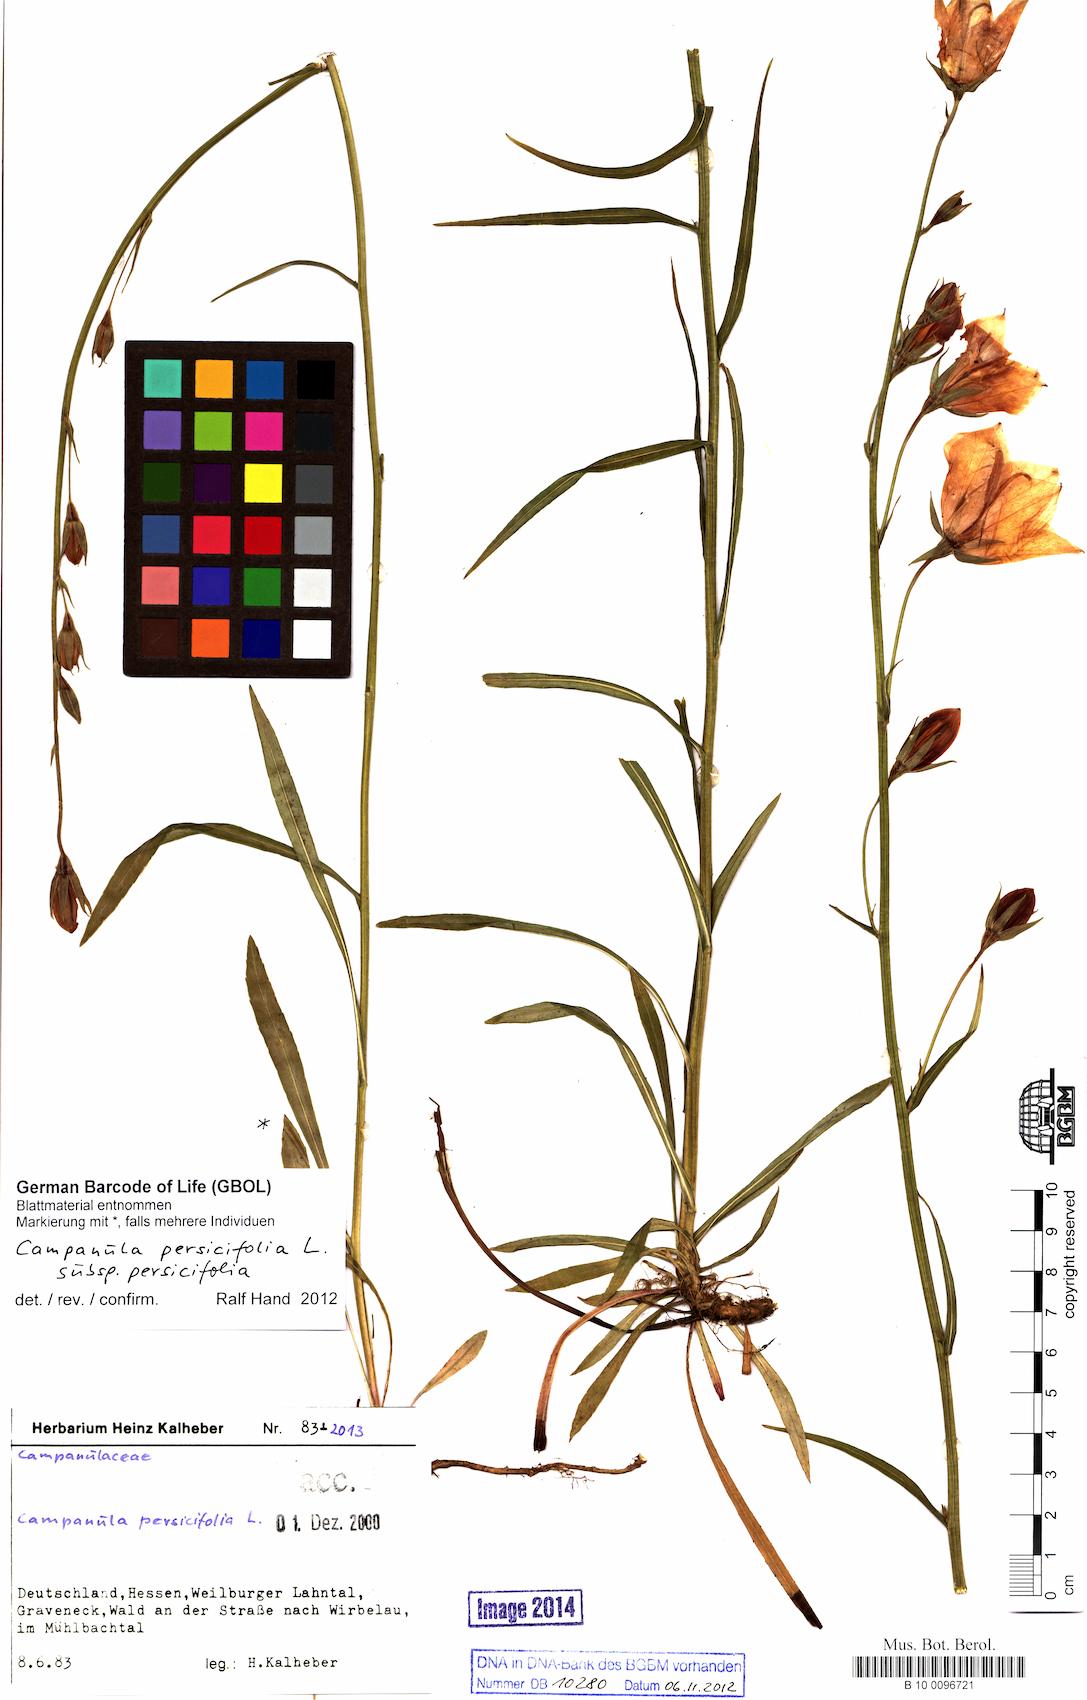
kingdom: Plantae
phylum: Tracheophyta
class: Magnoliopsida
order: Asterales
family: Campanulaceae
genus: Campanula
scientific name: Campanula persicifolia
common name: Peach-leaved bellflower
